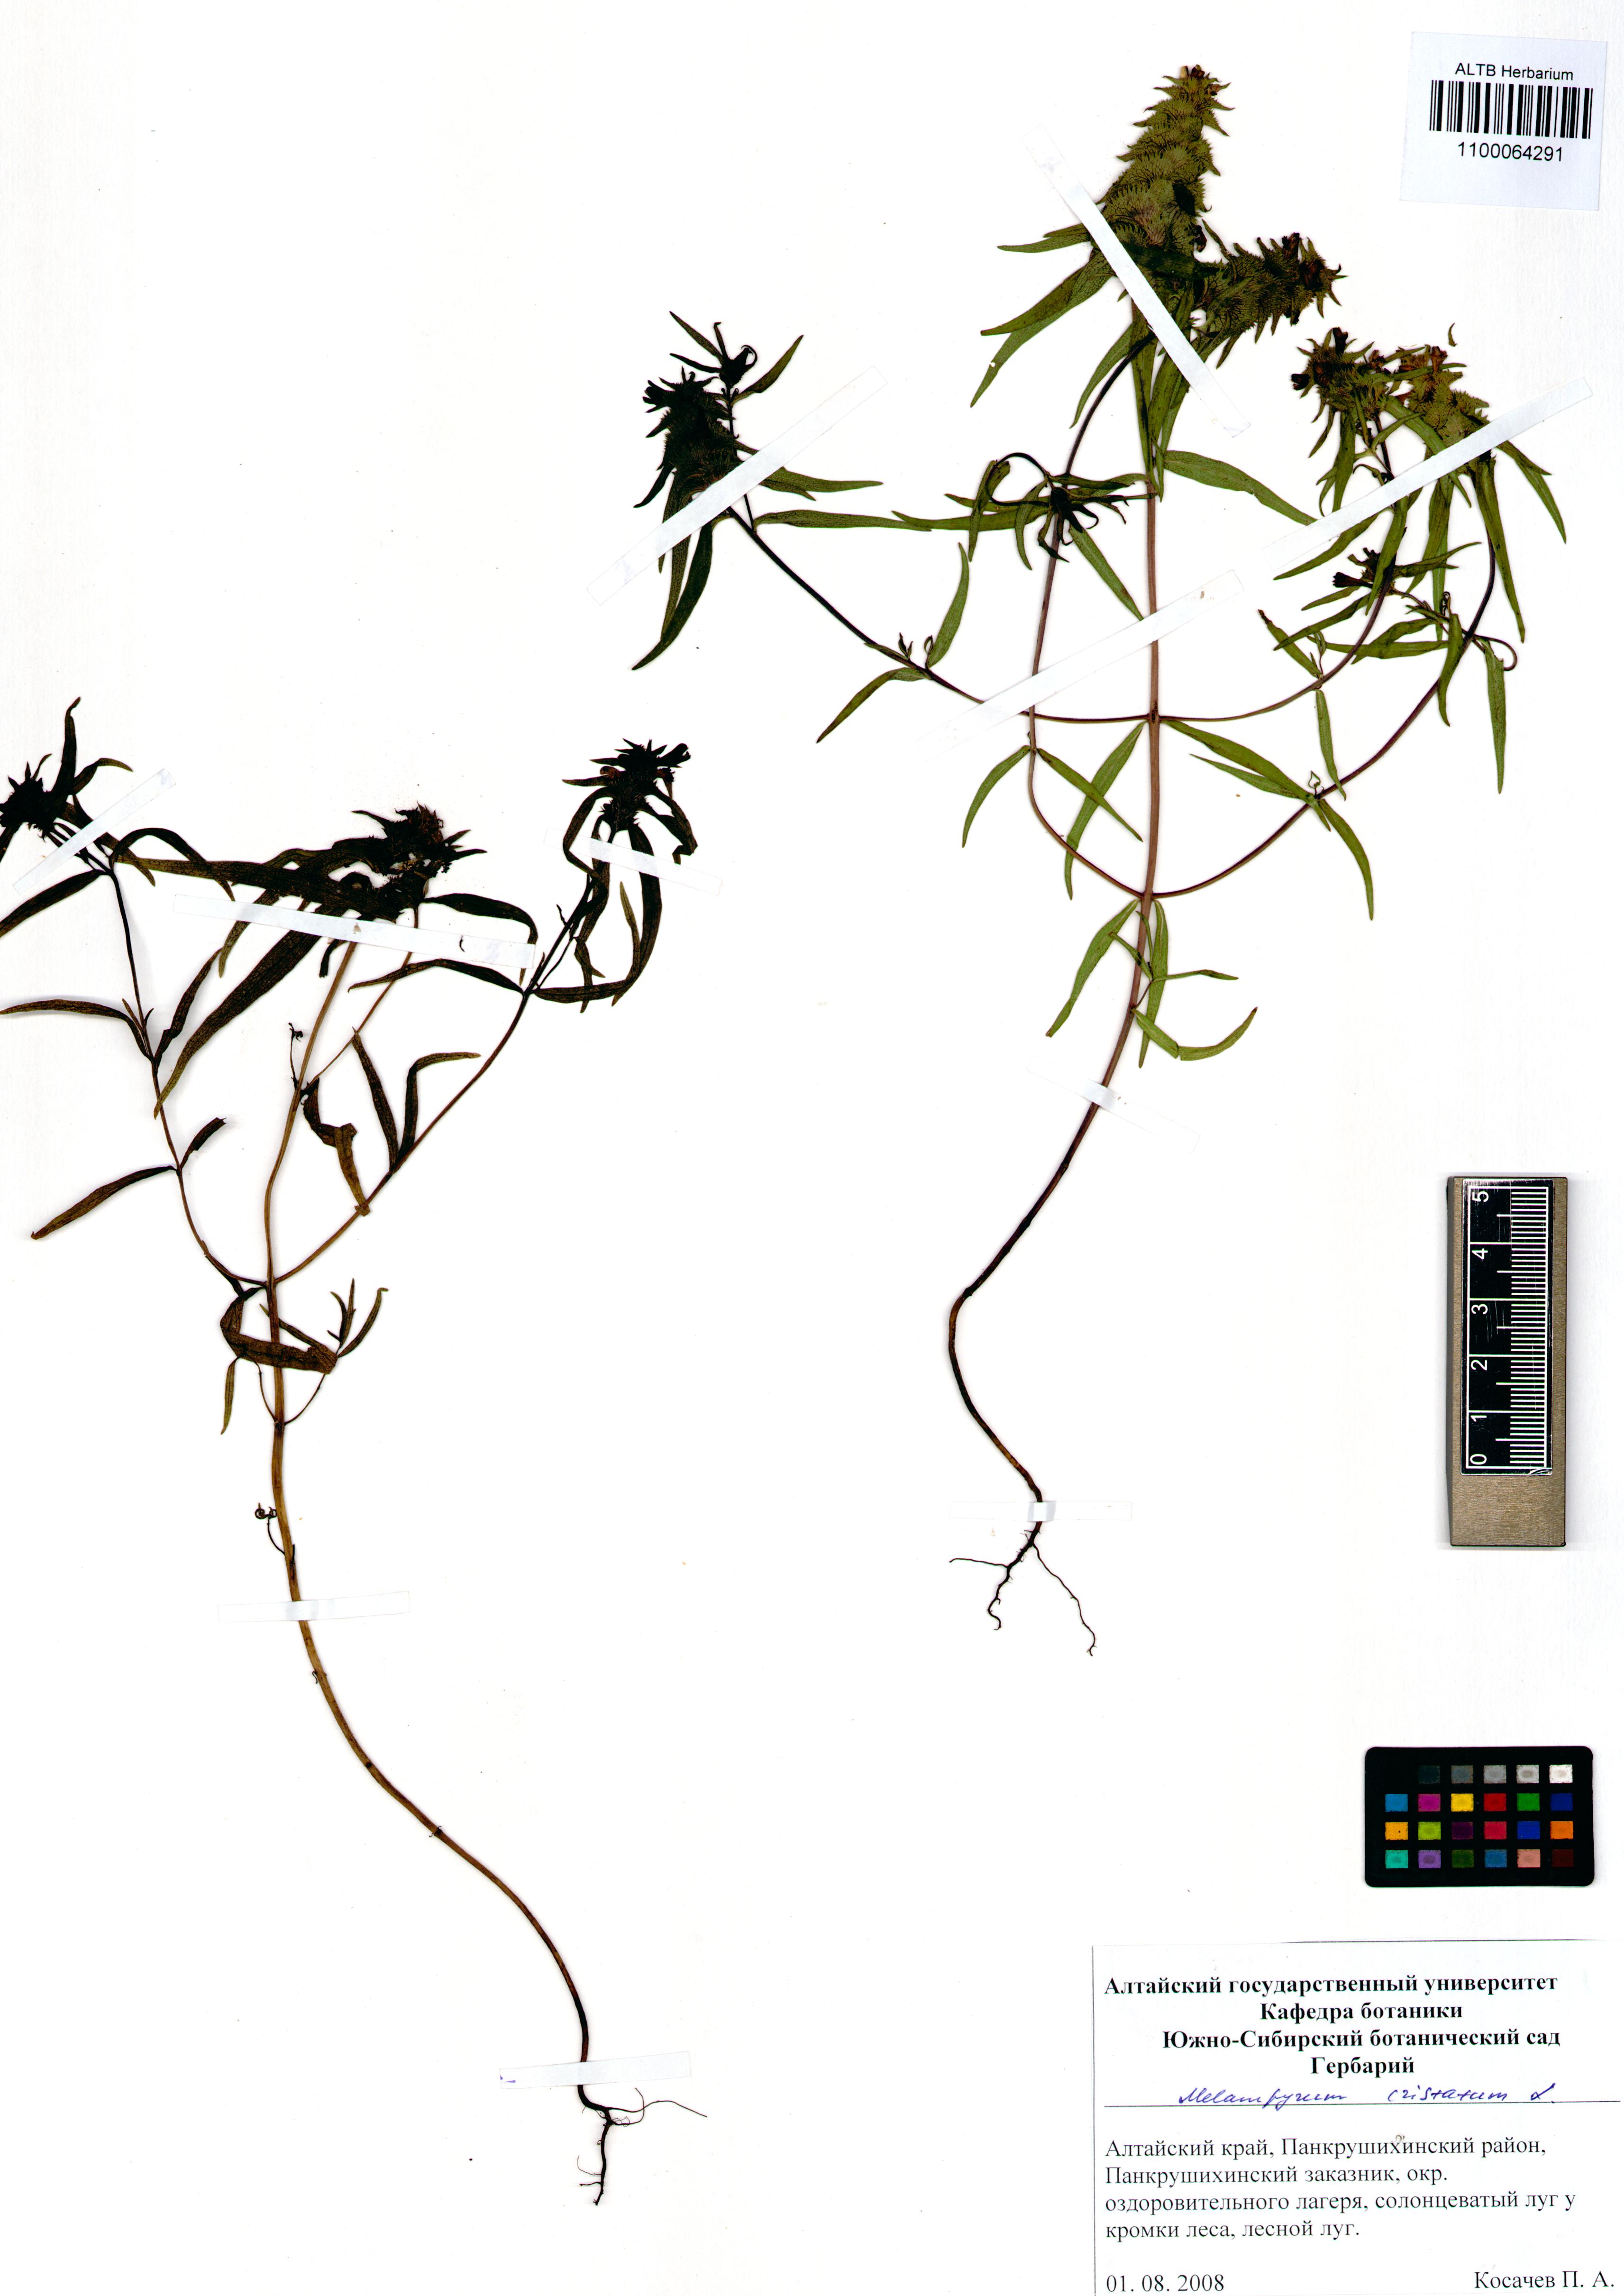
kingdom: Plantae
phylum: Tracheophyta
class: Magnoliopsida
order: Lamiales
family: Orobanchaceae
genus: Melampyrum
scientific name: Melampyrum cristatum
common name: Crested cow-wheat
